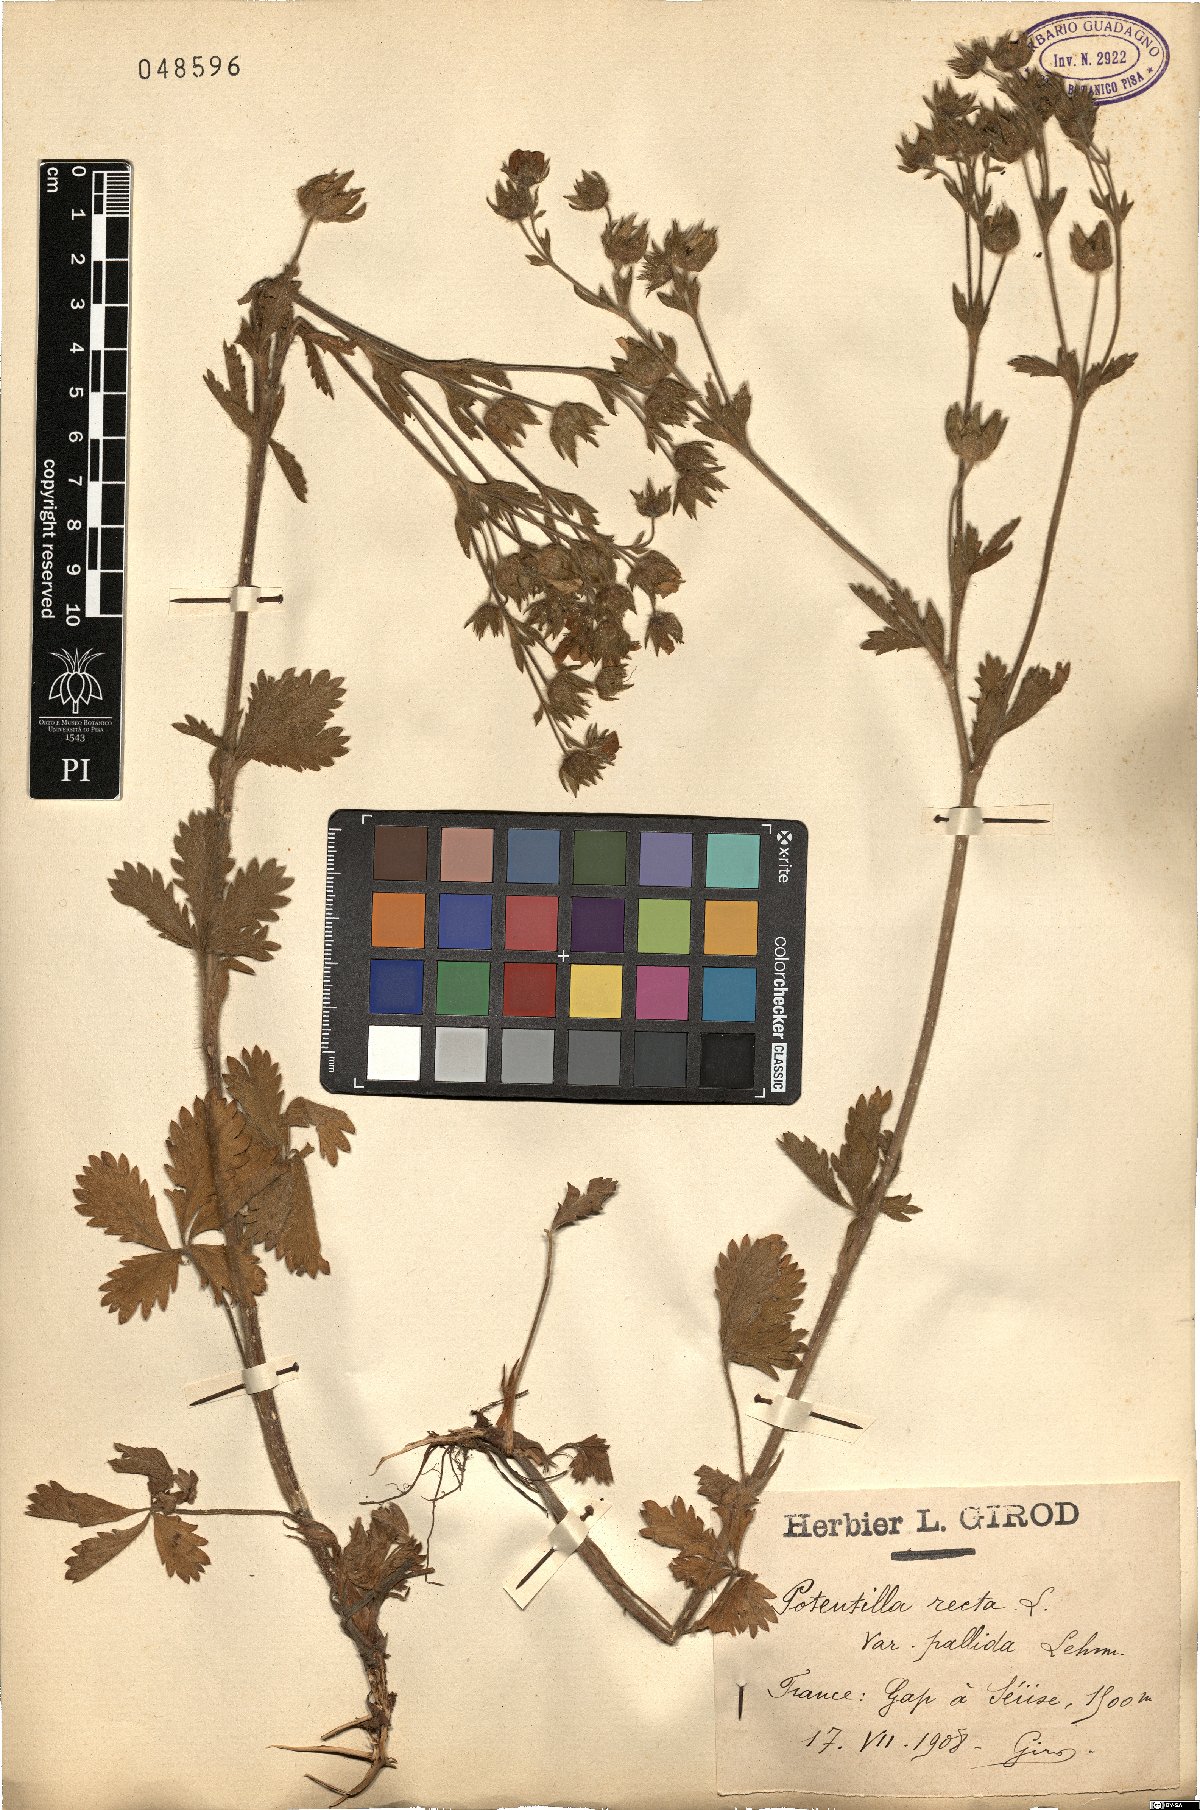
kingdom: Plantae
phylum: Tracheophyta
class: Magnoliopsida
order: Rosales
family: Rosaceae
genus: Potentilla
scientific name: Potentilla recta
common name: Sulphur cinquefoil
